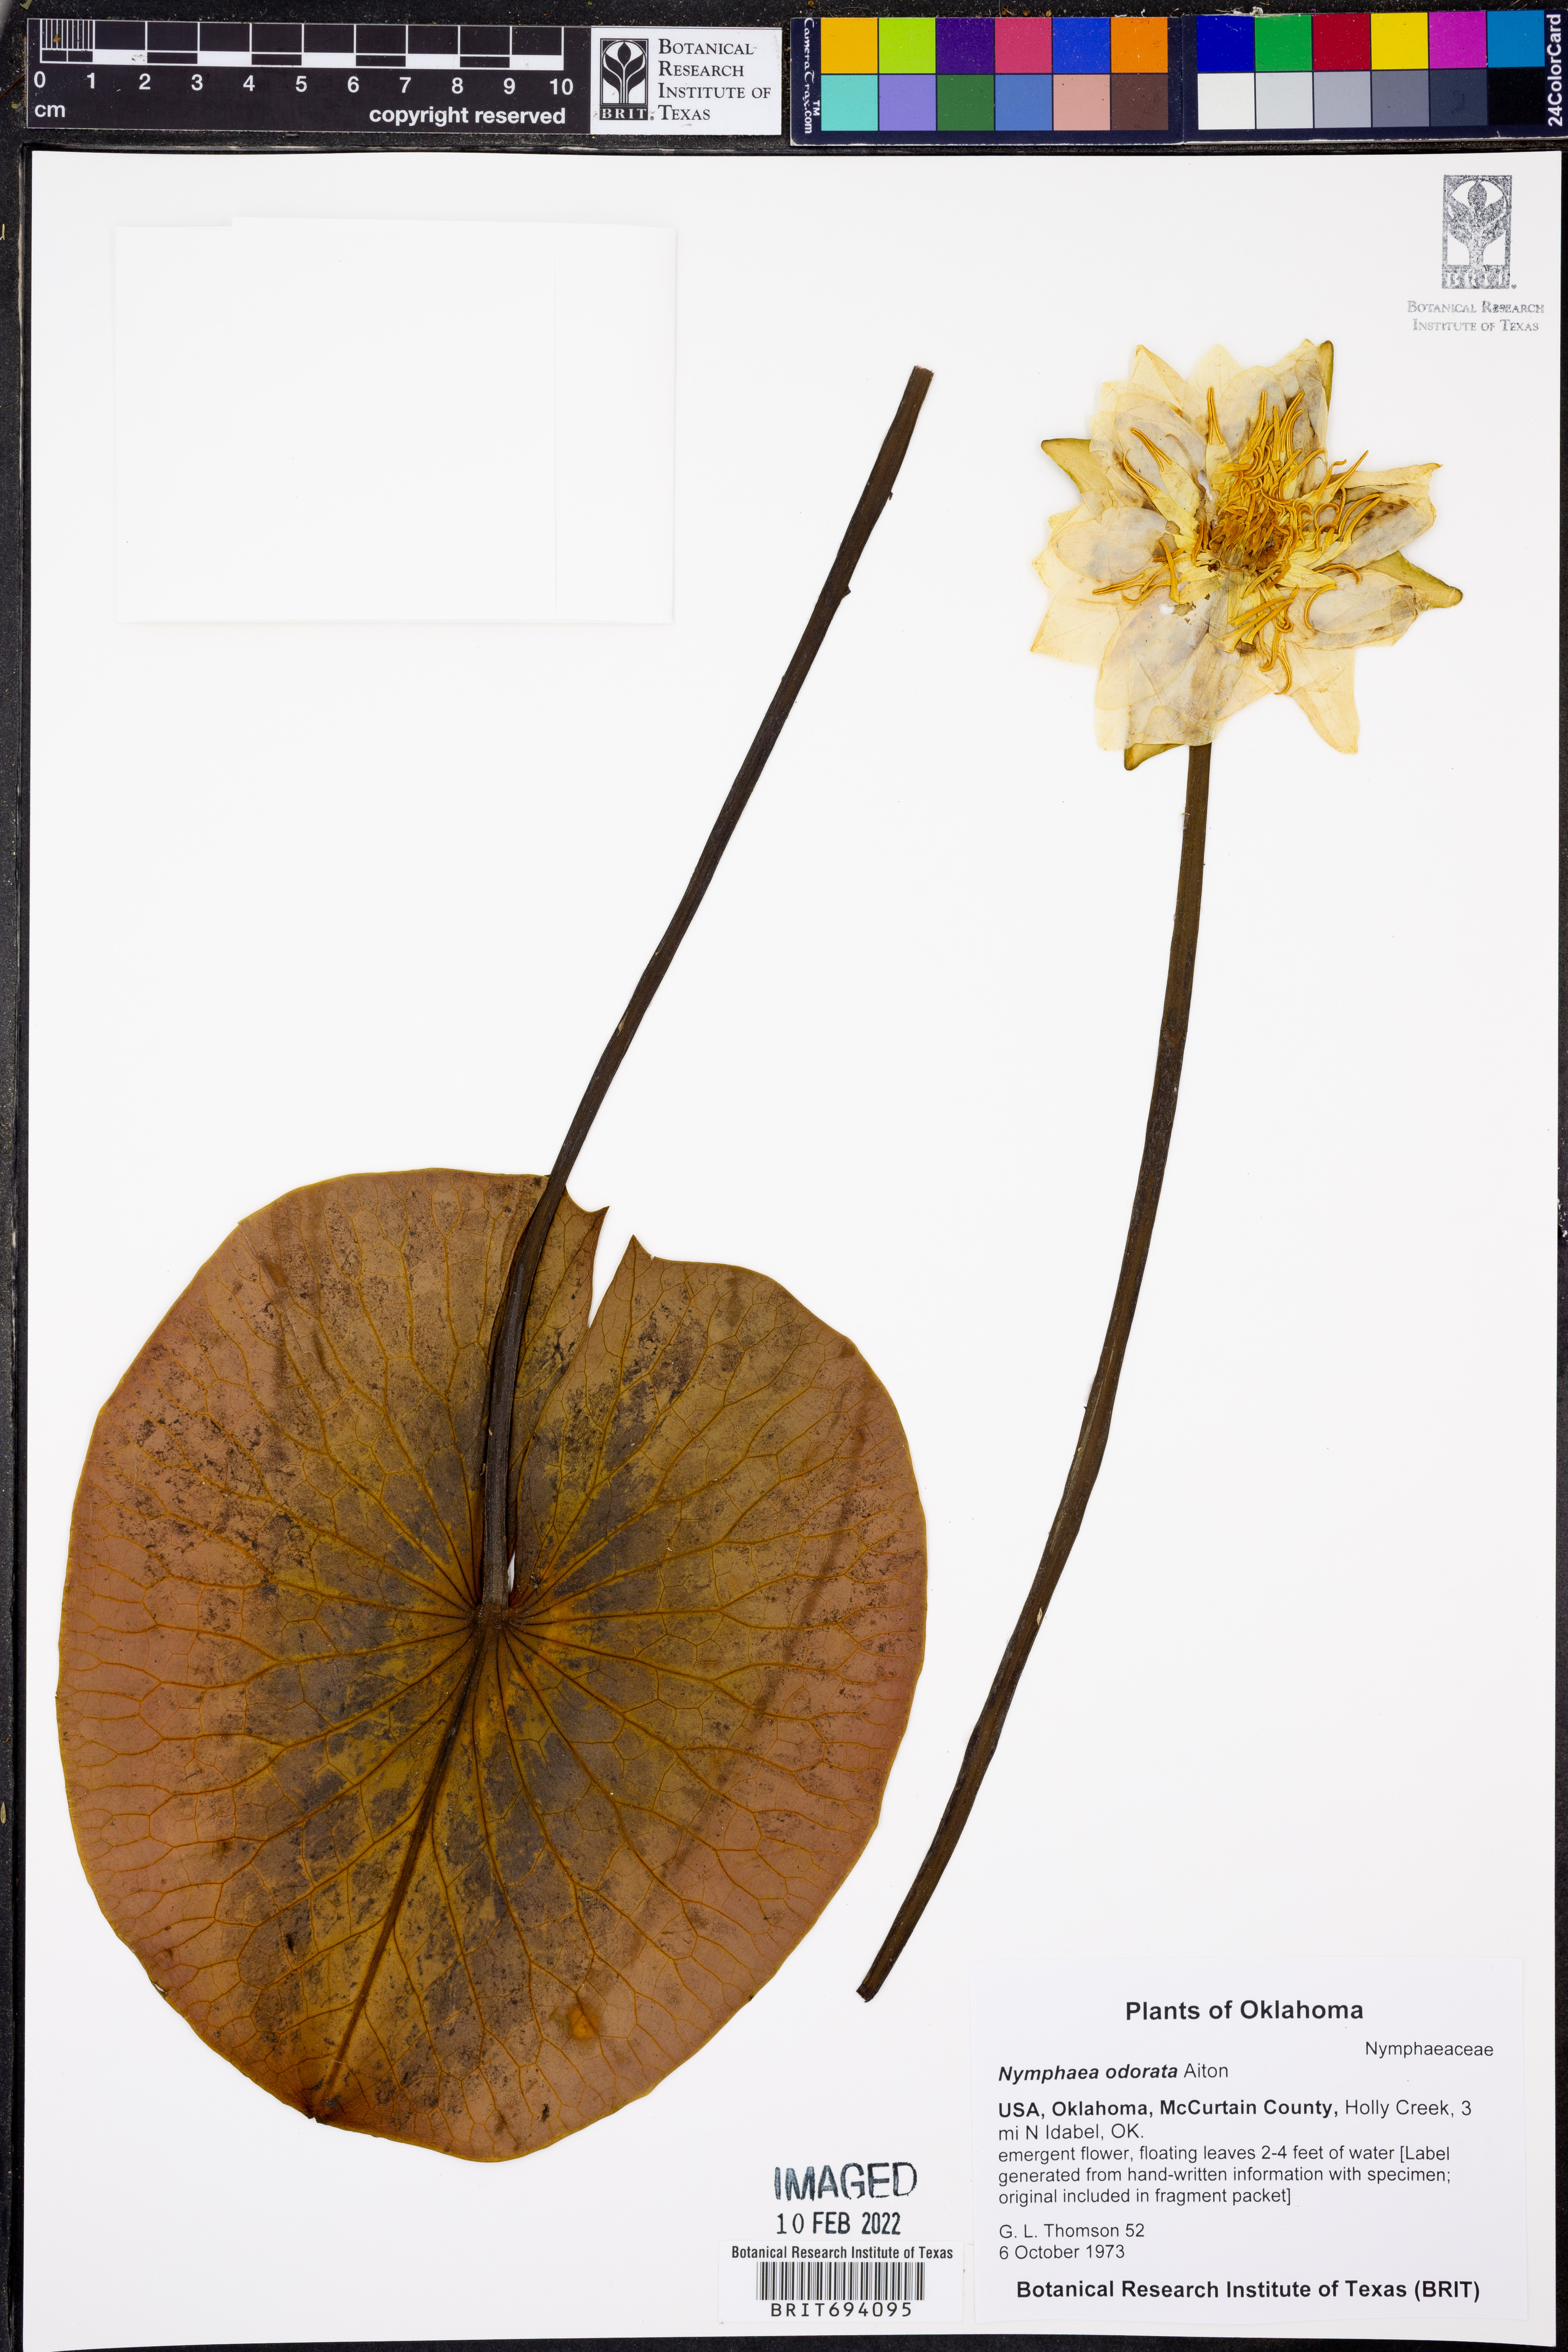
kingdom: Plantae
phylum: Tracheophyta
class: Magnoliopsida
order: Nymphaeales
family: Nymphaeaceae
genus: Nymphaea
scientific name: Nymphaea odorata
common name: Fragrant water-lily
